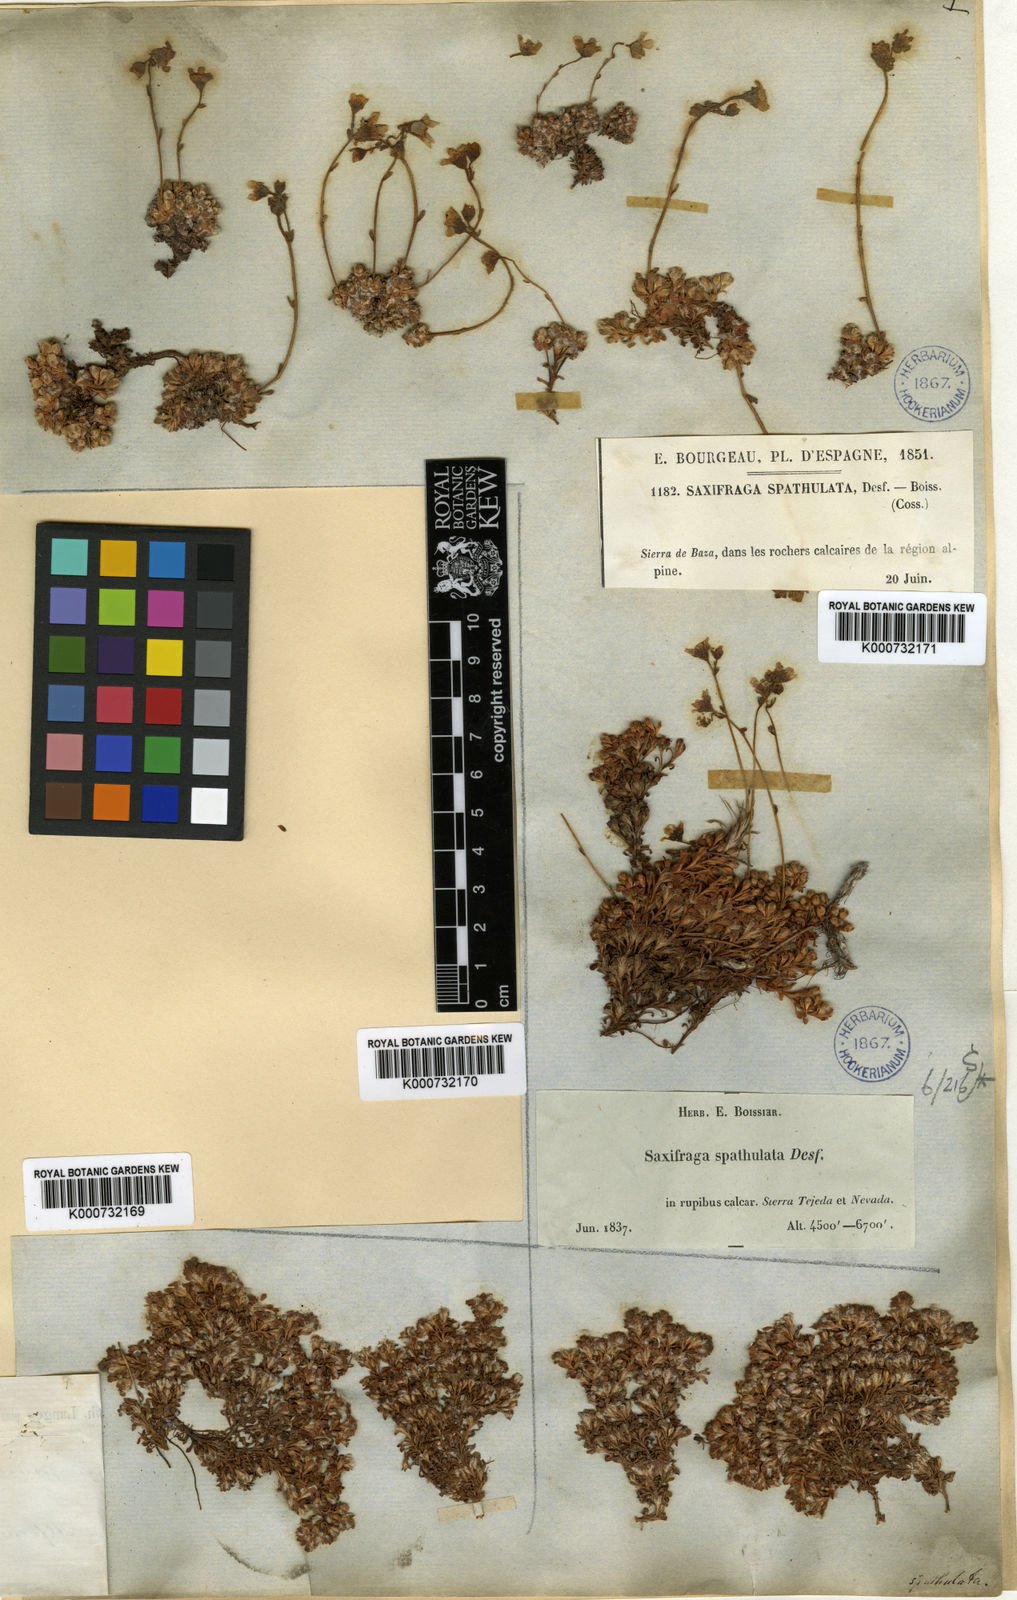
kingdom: Plantae
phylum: Tracheophyta
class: Magnoliopsida
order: Saxifragales
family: Saxifragaceae
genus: Saxifraga
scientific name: Saxifraga erioblasta
